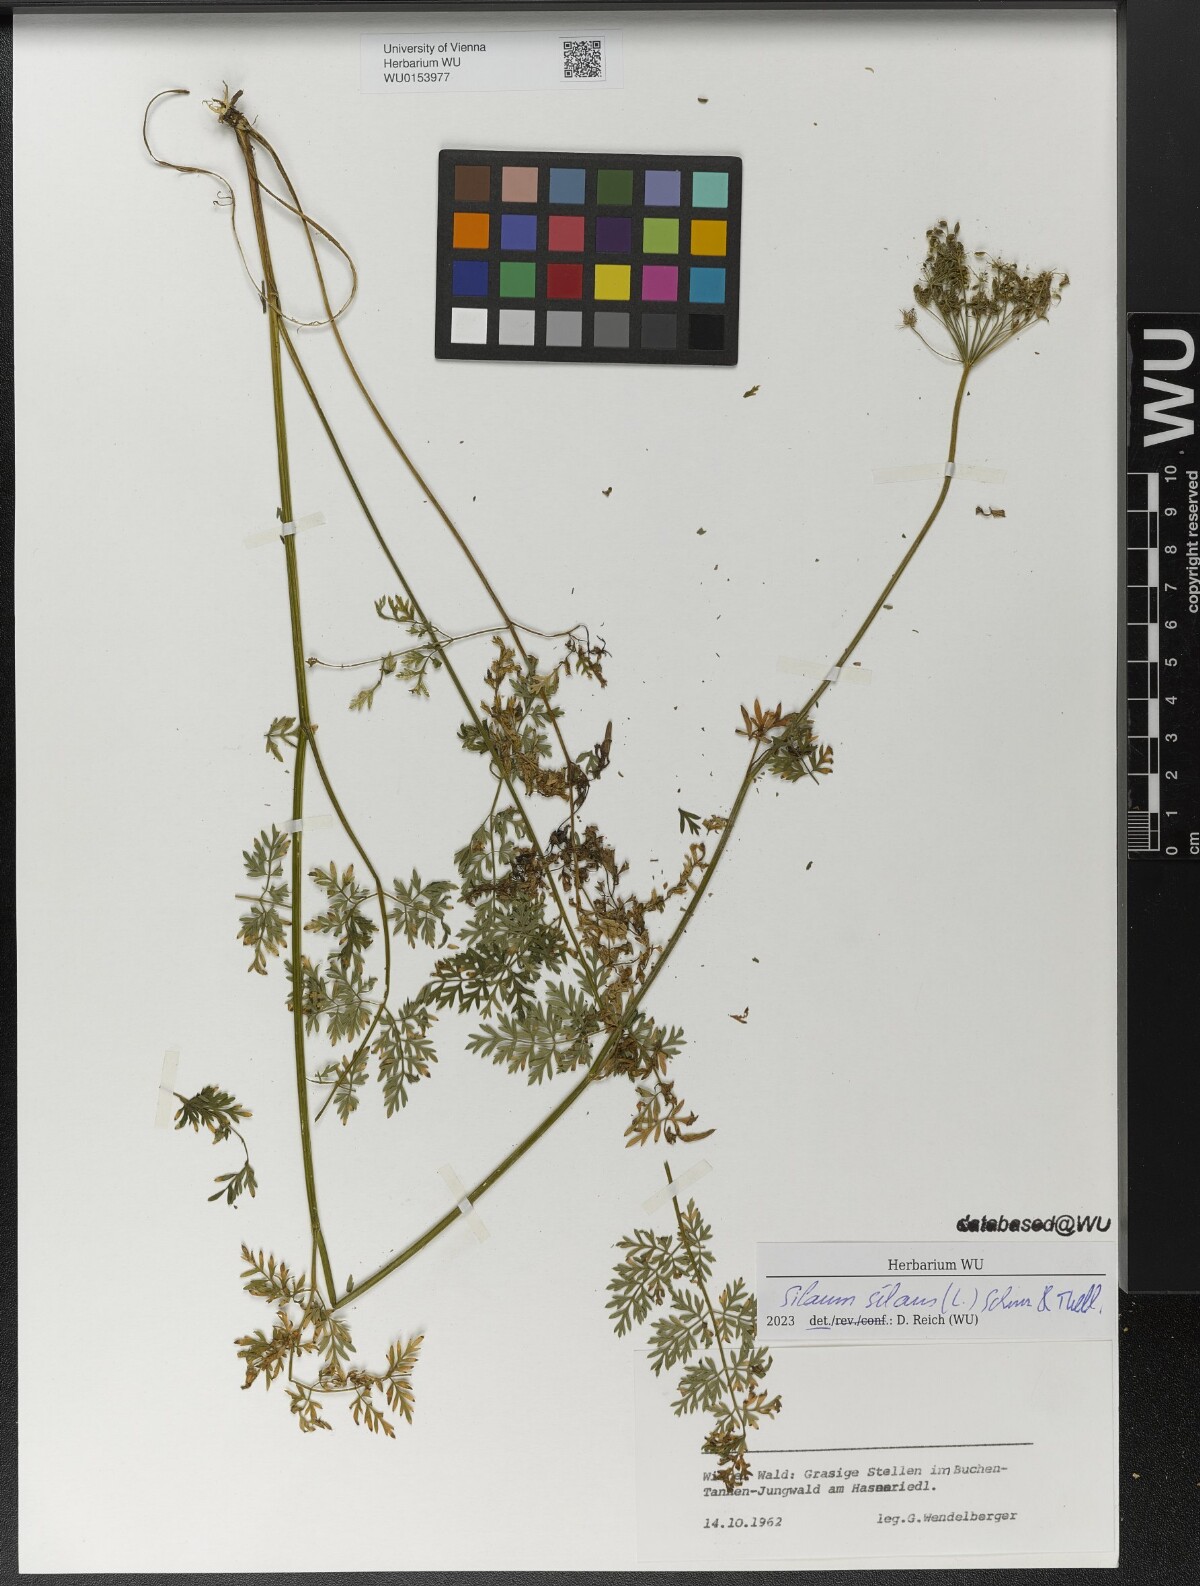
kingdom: Plantae
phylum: Tracheophyta
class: Magnoliopsida
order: Apiales
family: Apiaceae
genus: Silaum
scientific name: Silaum silaus
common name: Pepper-saxifrage
